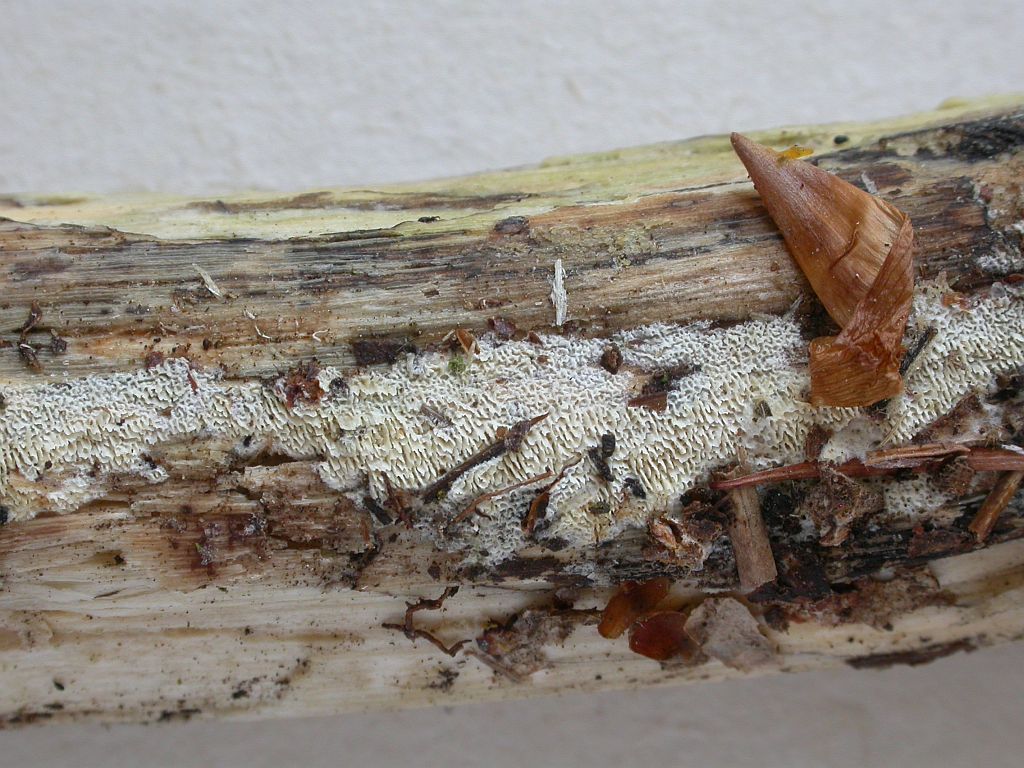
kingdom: Fungi
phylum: Basidiomycota
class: Agaricomycetes
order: Hymenochaetales
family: Schizoporaceae
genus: Xylodon
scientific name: Xylodon subtropicus
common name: labyrint-tandsvamp
